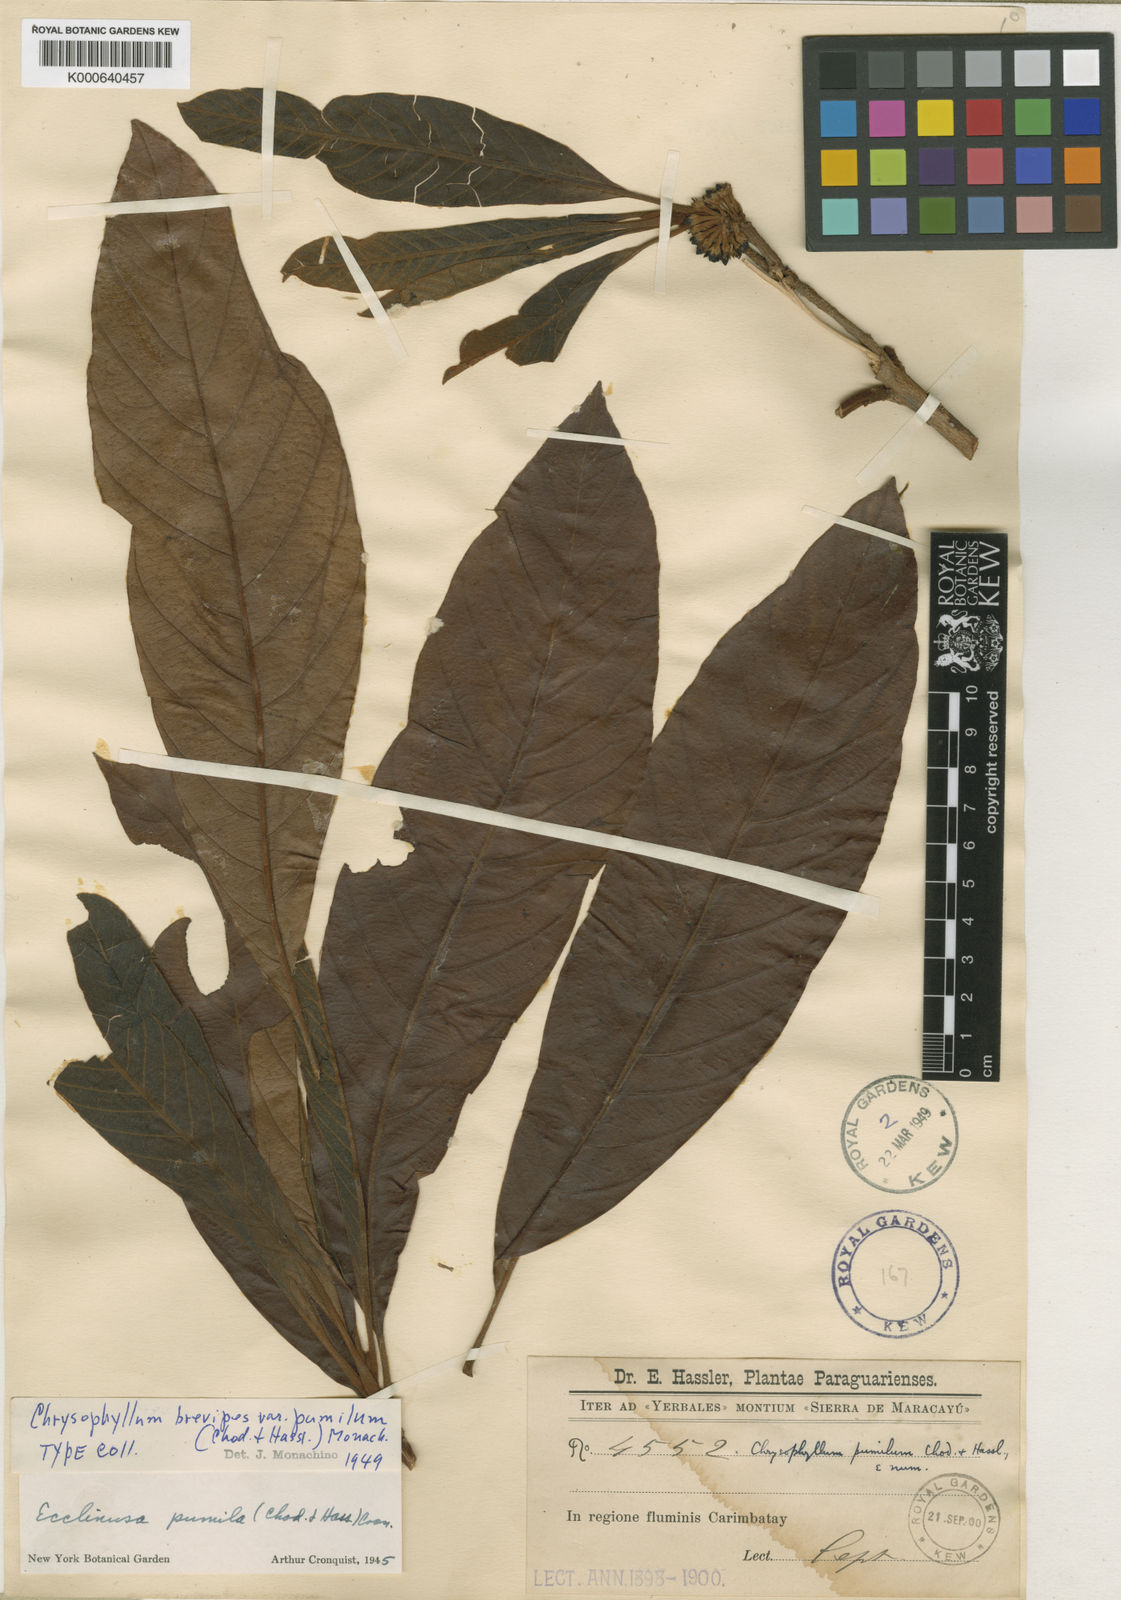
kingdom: Plantae
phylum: Tracheophyta
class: Magnoliopsida
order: Ericales
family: Sapotaceae
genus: Pradosia
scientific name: Pradosia brevipes
